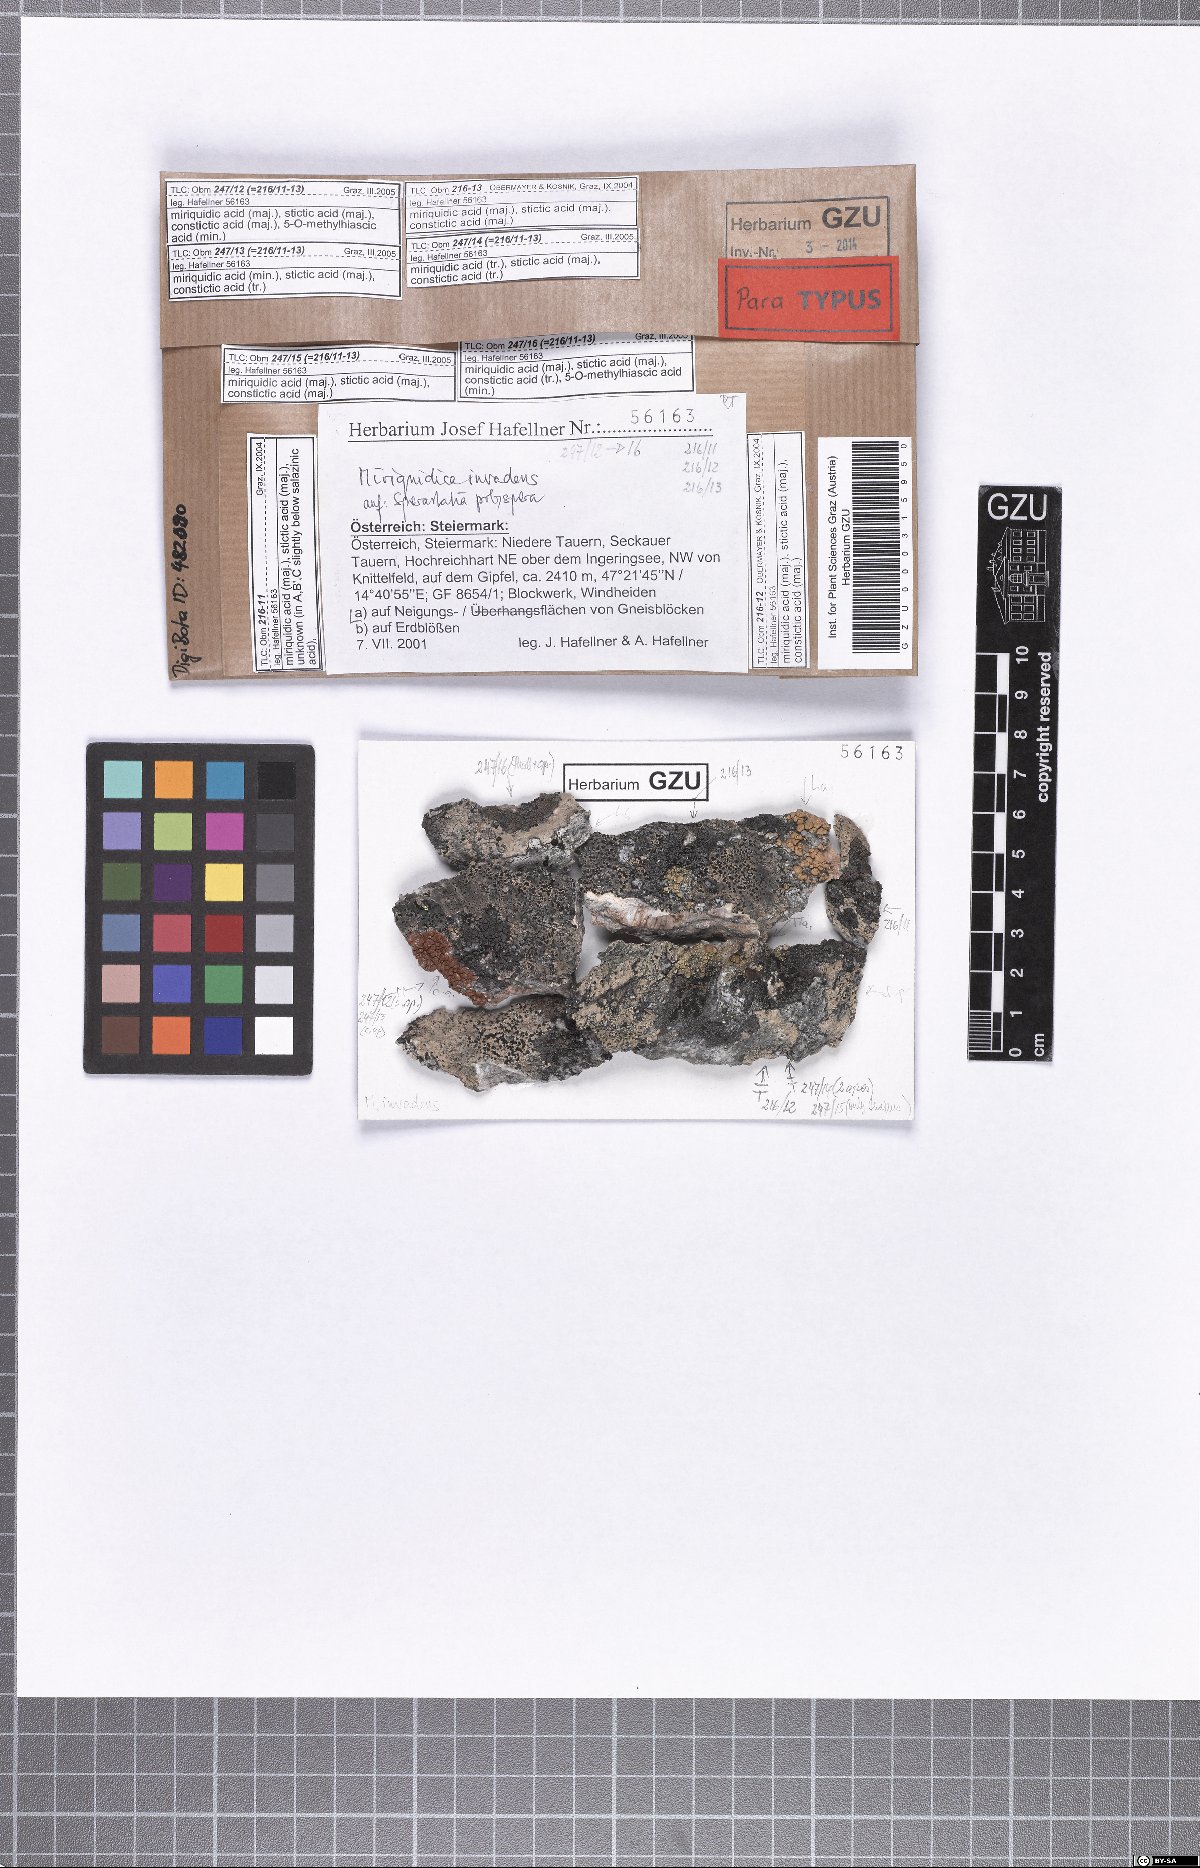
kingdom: Fungi
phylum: Ascomycota
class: Lecanoromycetes
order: Lecanorales
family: Lecanoraceae
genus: Miriquidica
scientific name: Miriquidica invadens
